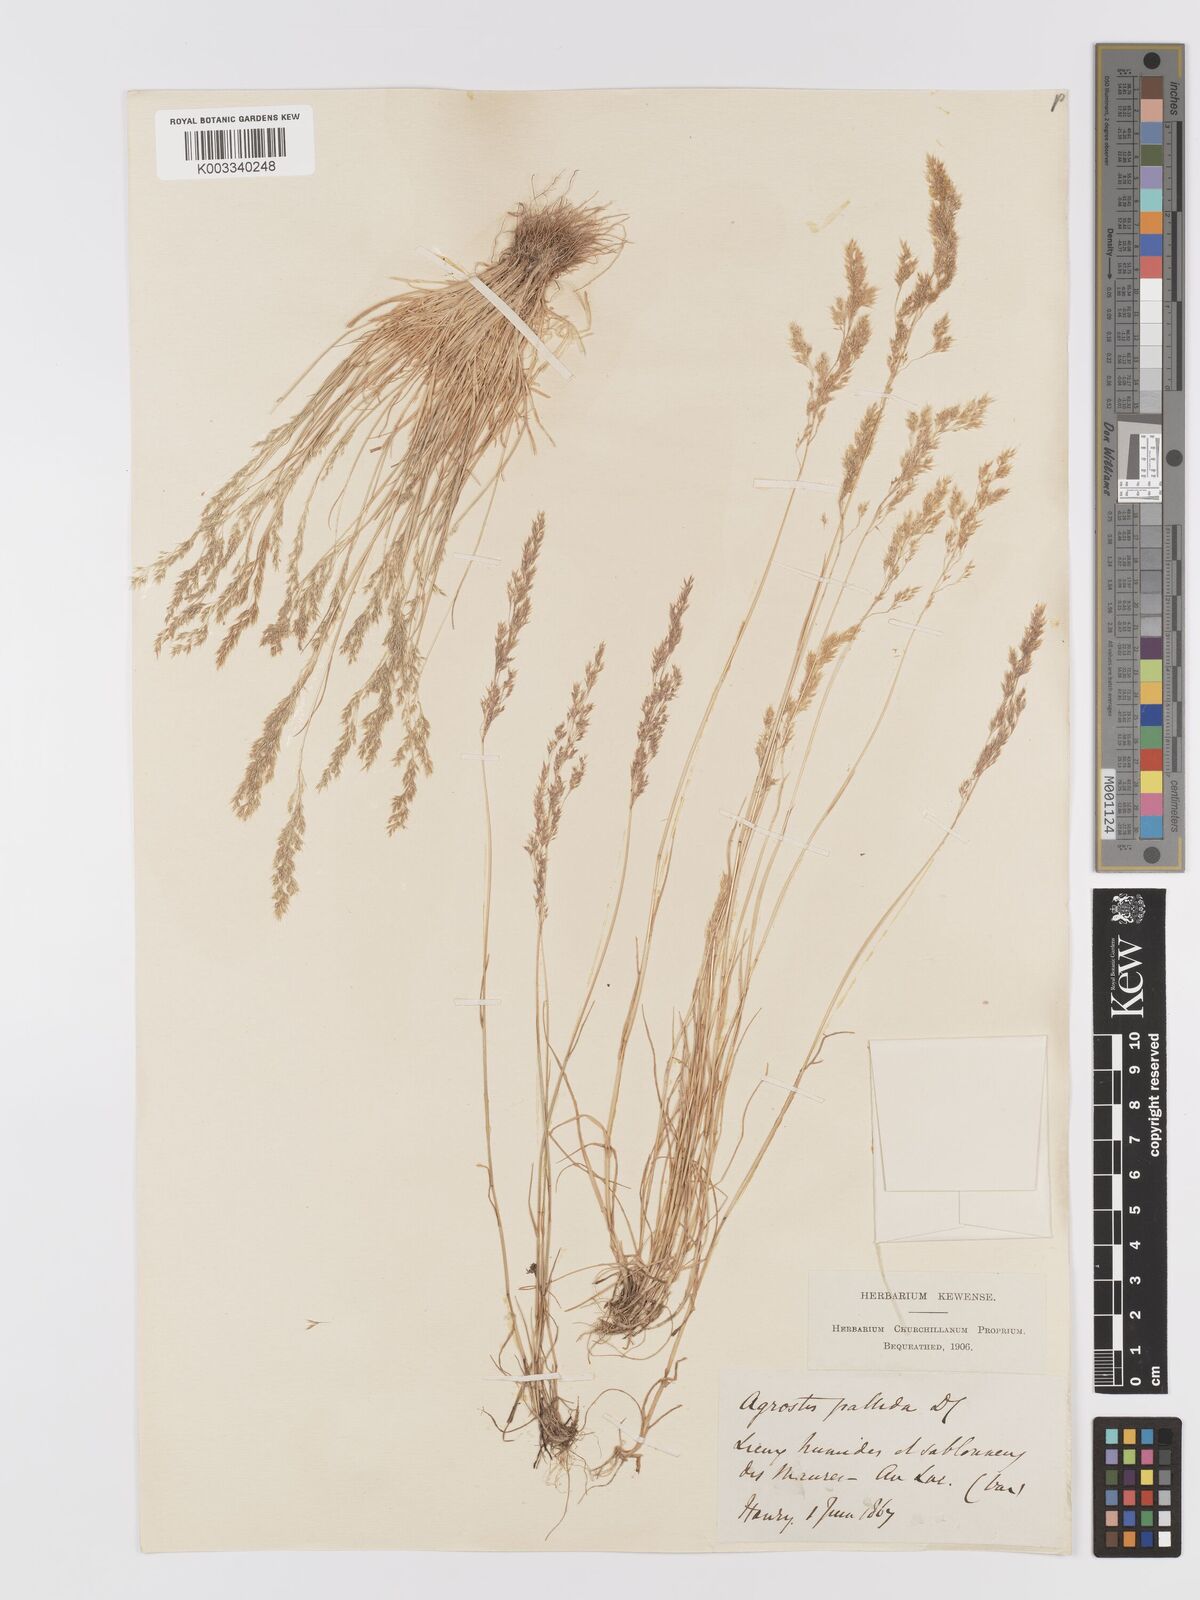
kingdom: Plantae
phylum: Tracheophyta
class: Liliopsida
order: Poales
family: Poaceae
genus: Agrostis
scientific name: Agrostis pourretii
